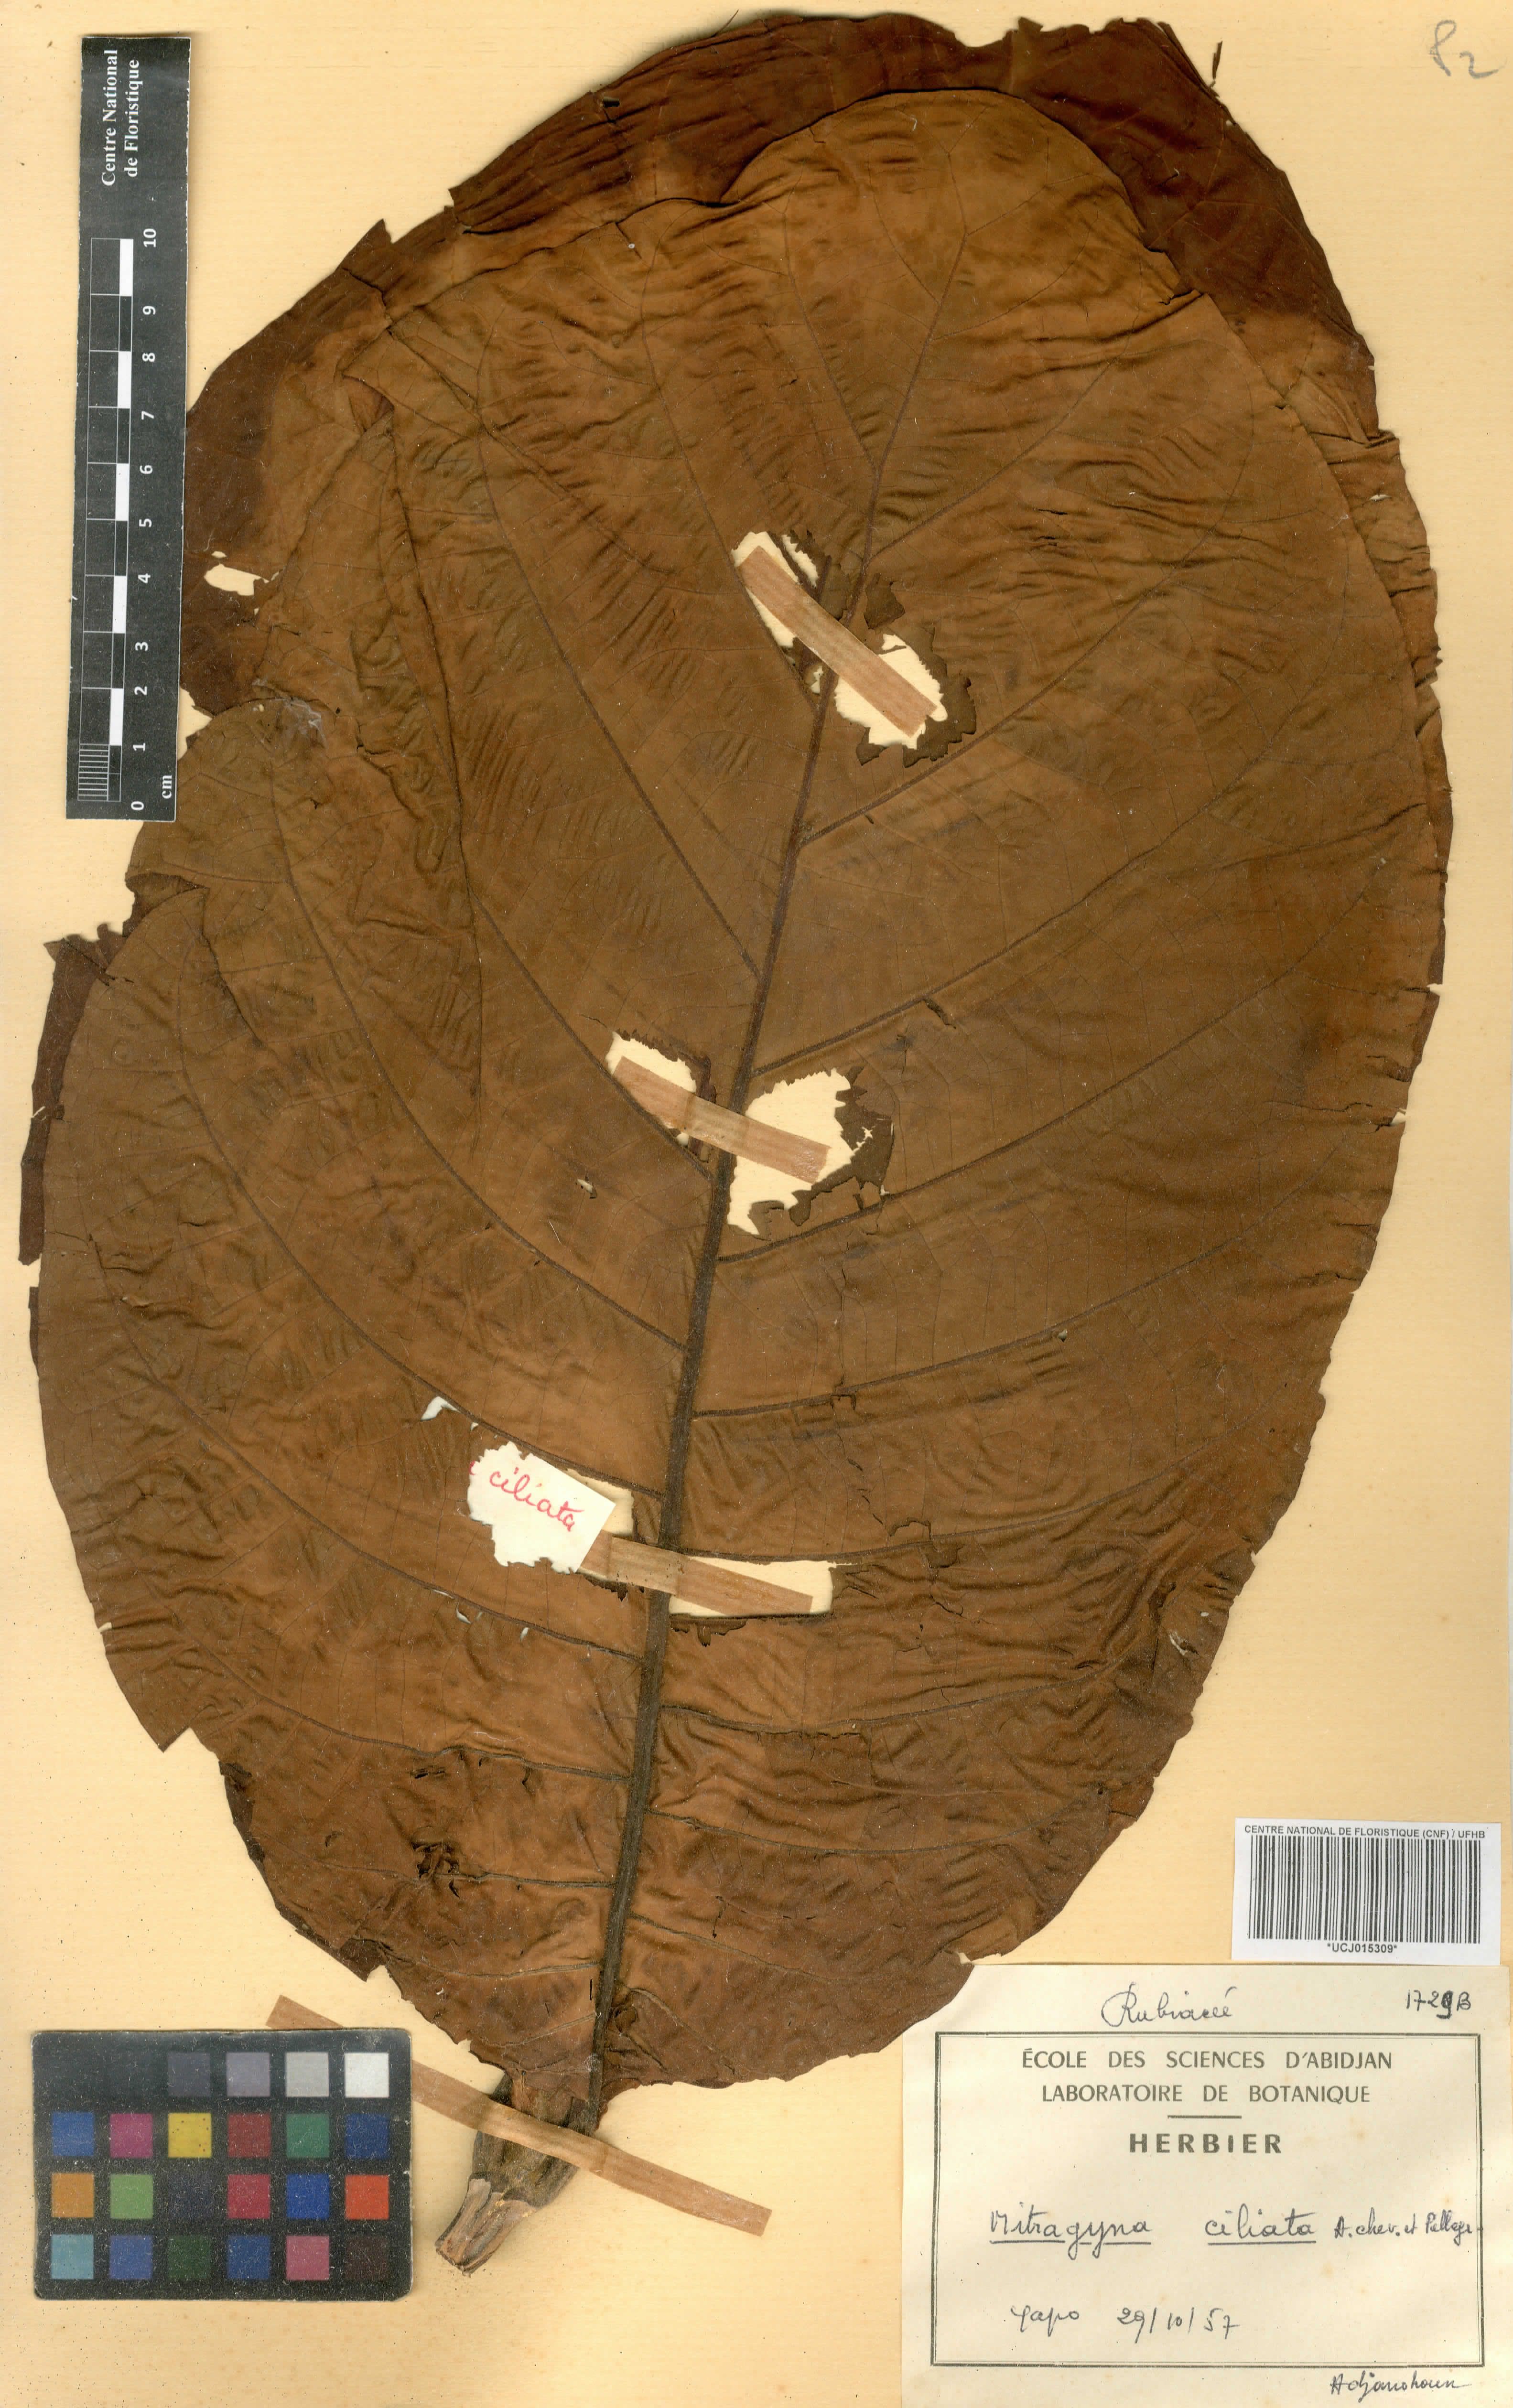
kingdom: Plantae
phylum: Tracheophyta
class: Magnoliopsida
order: Gentianales
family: Rubiaceae
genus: Mitragyna
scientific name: Mitragyna ciliata
